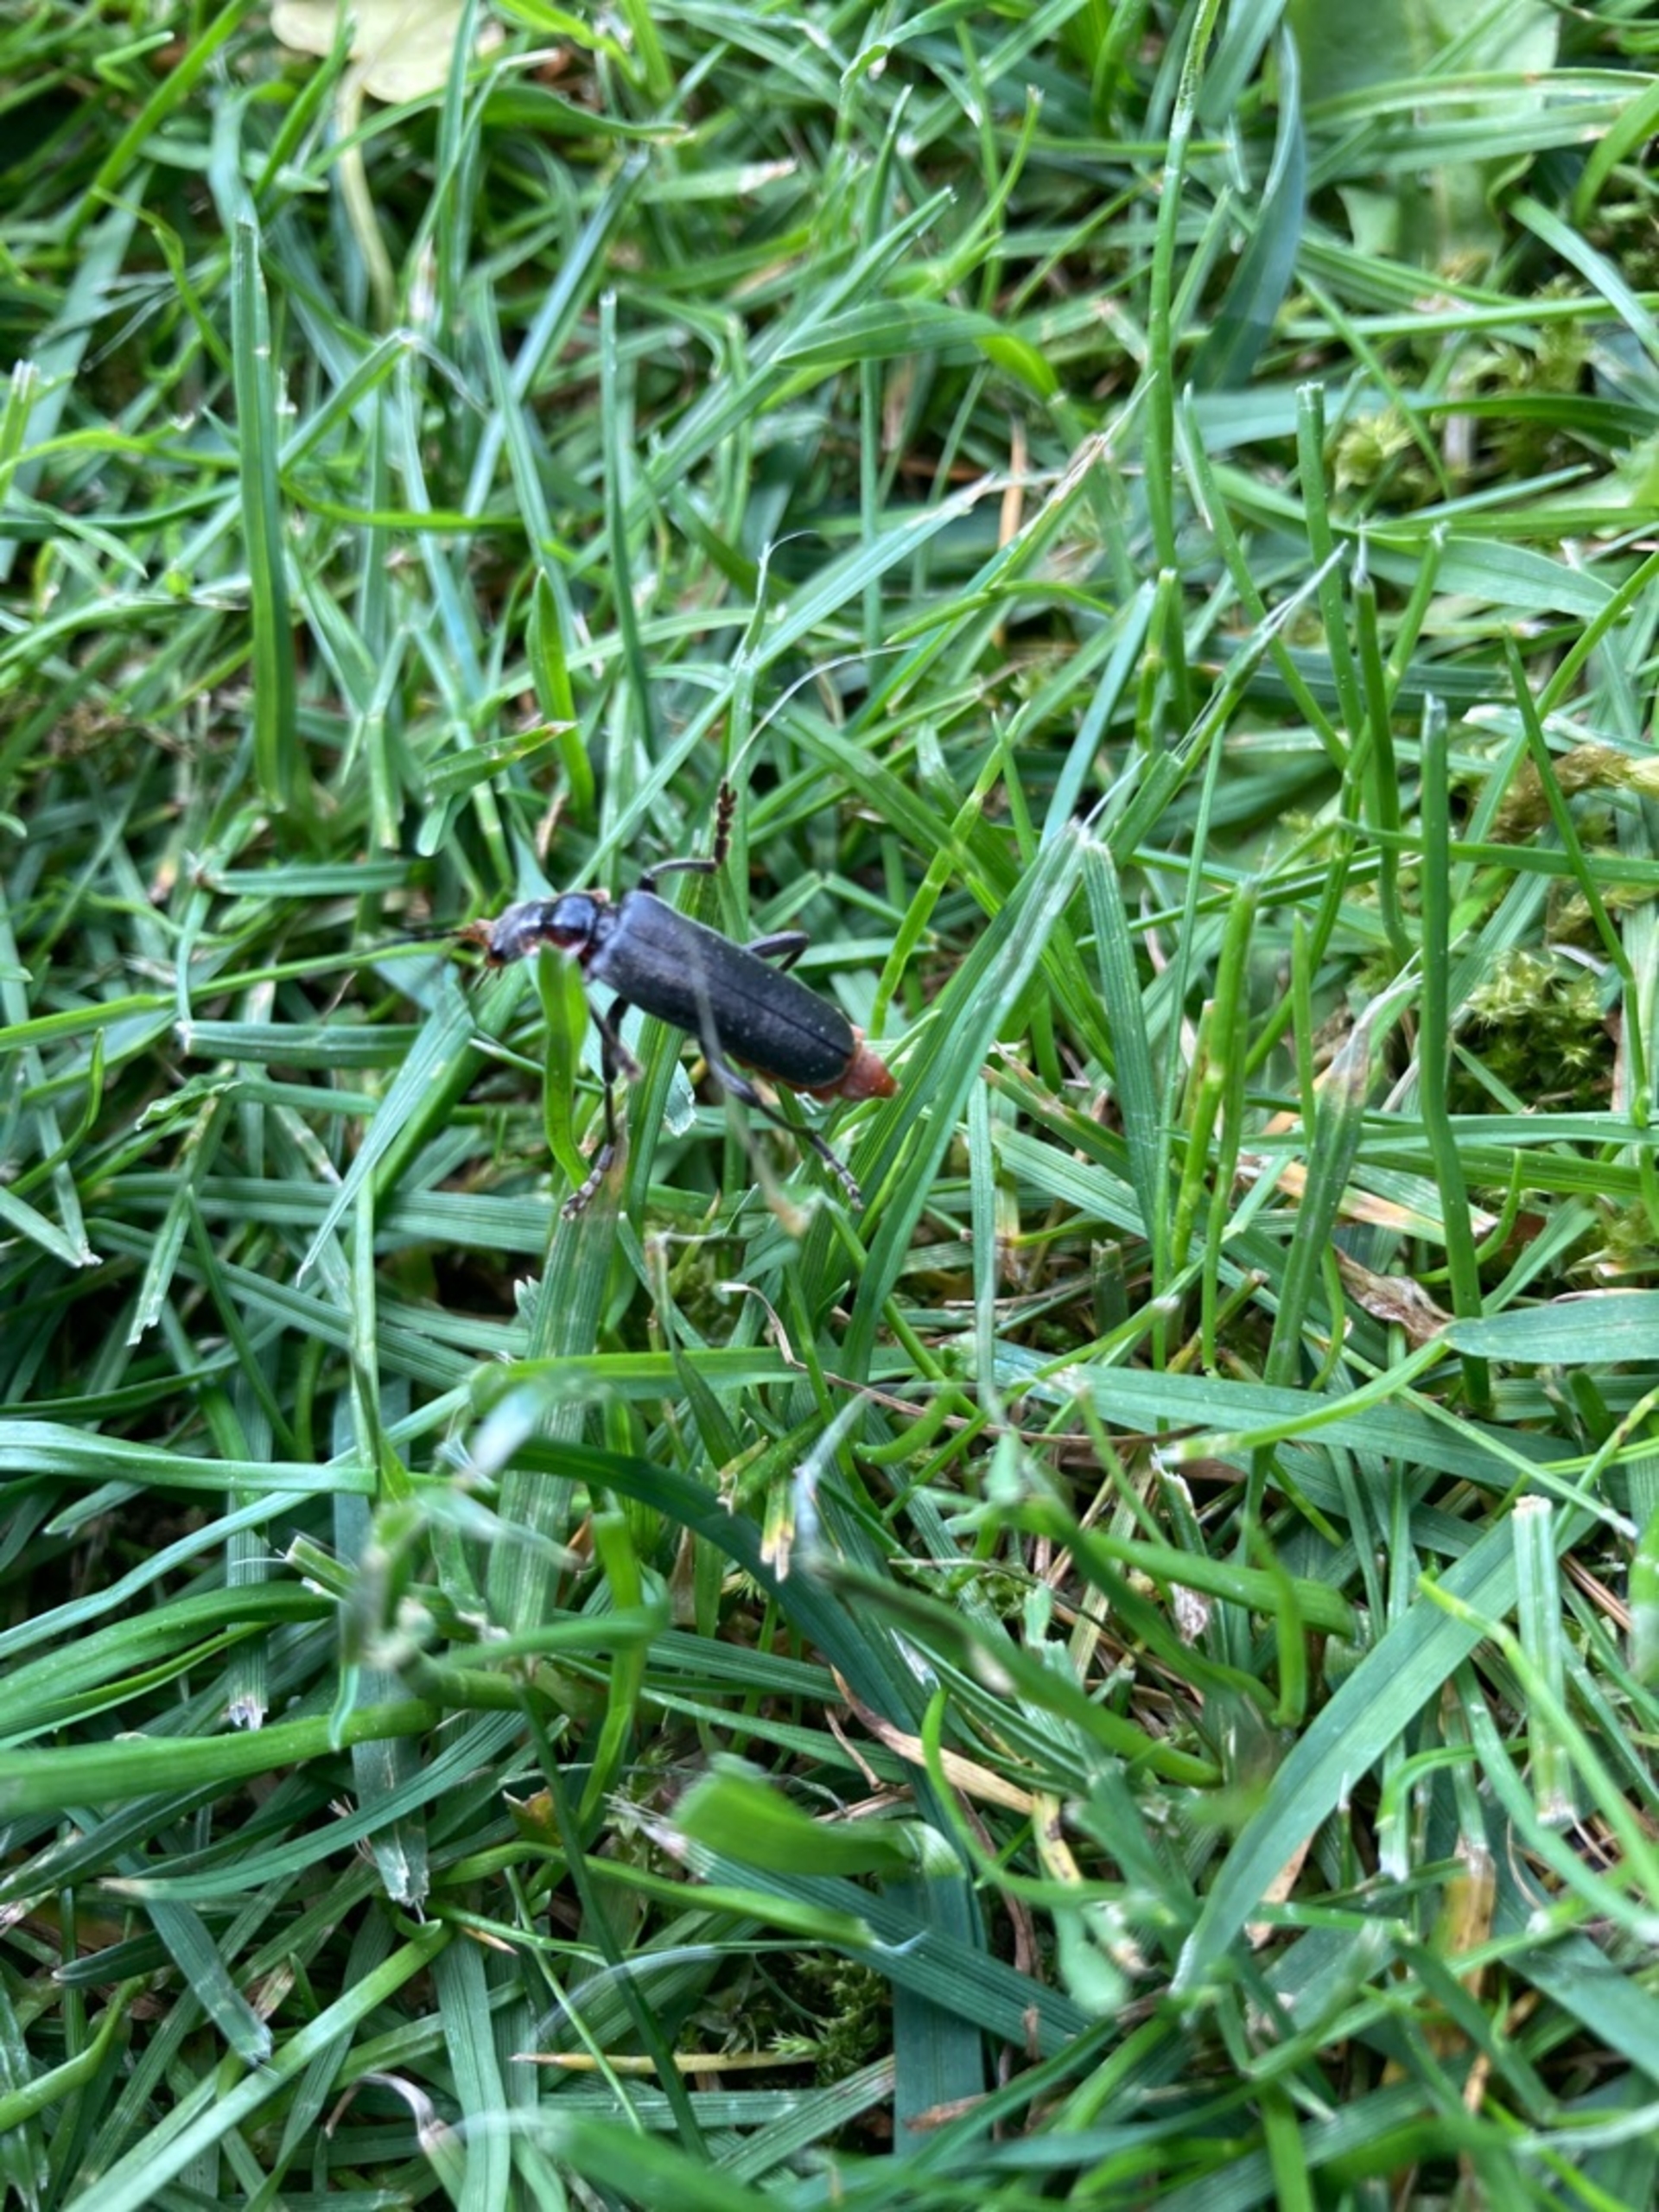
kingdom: Animalia
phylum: Arthropoda
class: Insecta
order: Coleoptera
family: Cantharidae
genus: Cantharis
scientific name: Cantharis fusca
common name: Stor blødvinge
